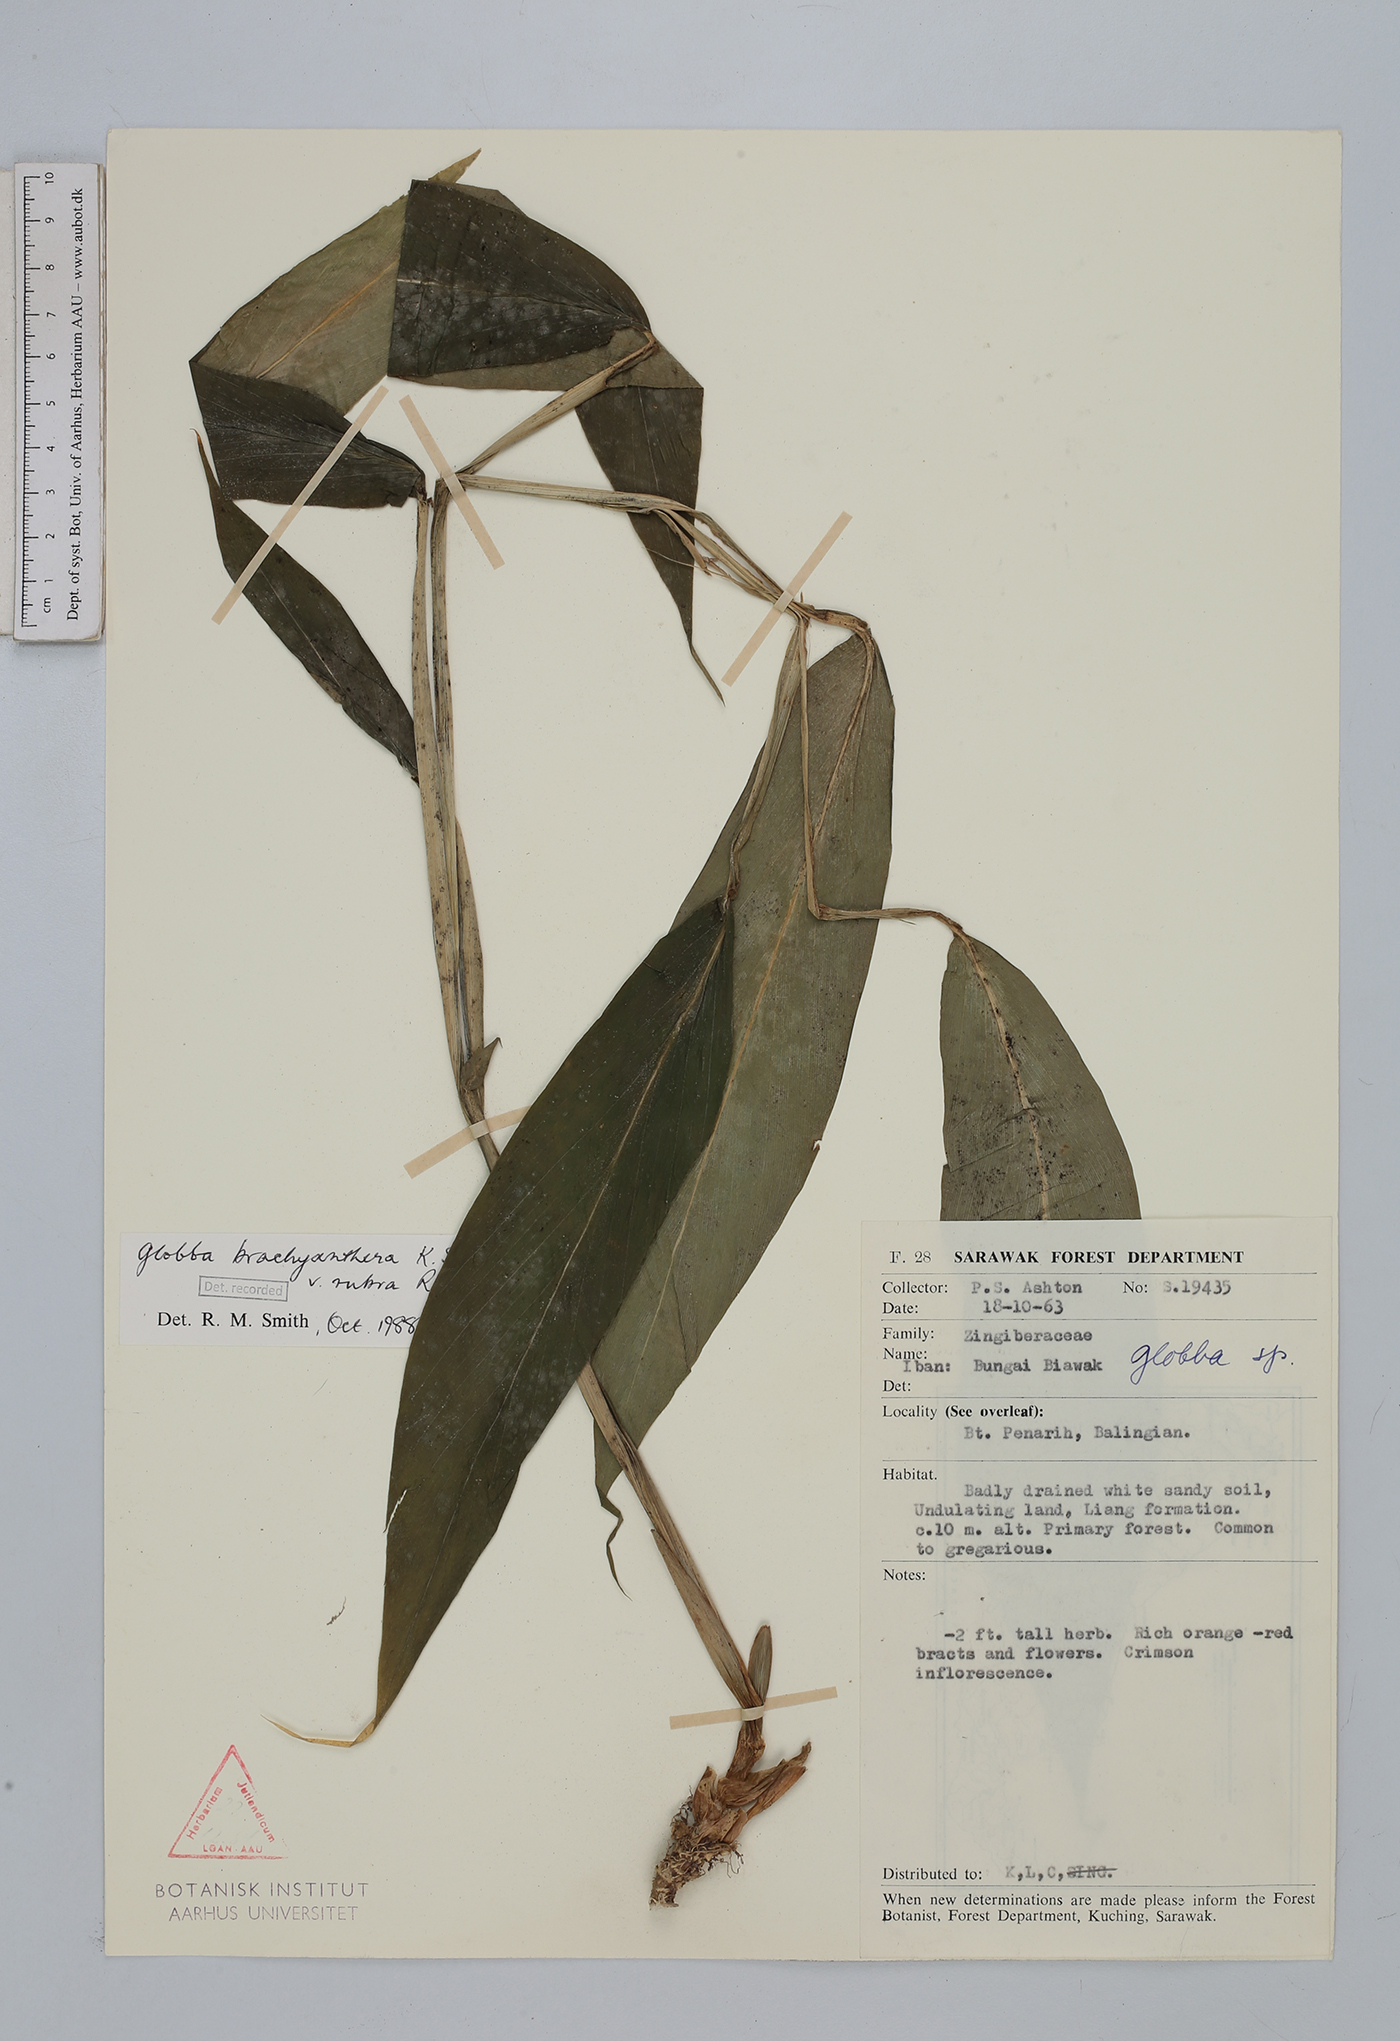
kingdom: Plantae
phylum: Tracheophyta
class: Liliopsida
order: Zingiberales
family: Zingiberaceae
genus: Globba
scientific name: Globba brachyanthera
